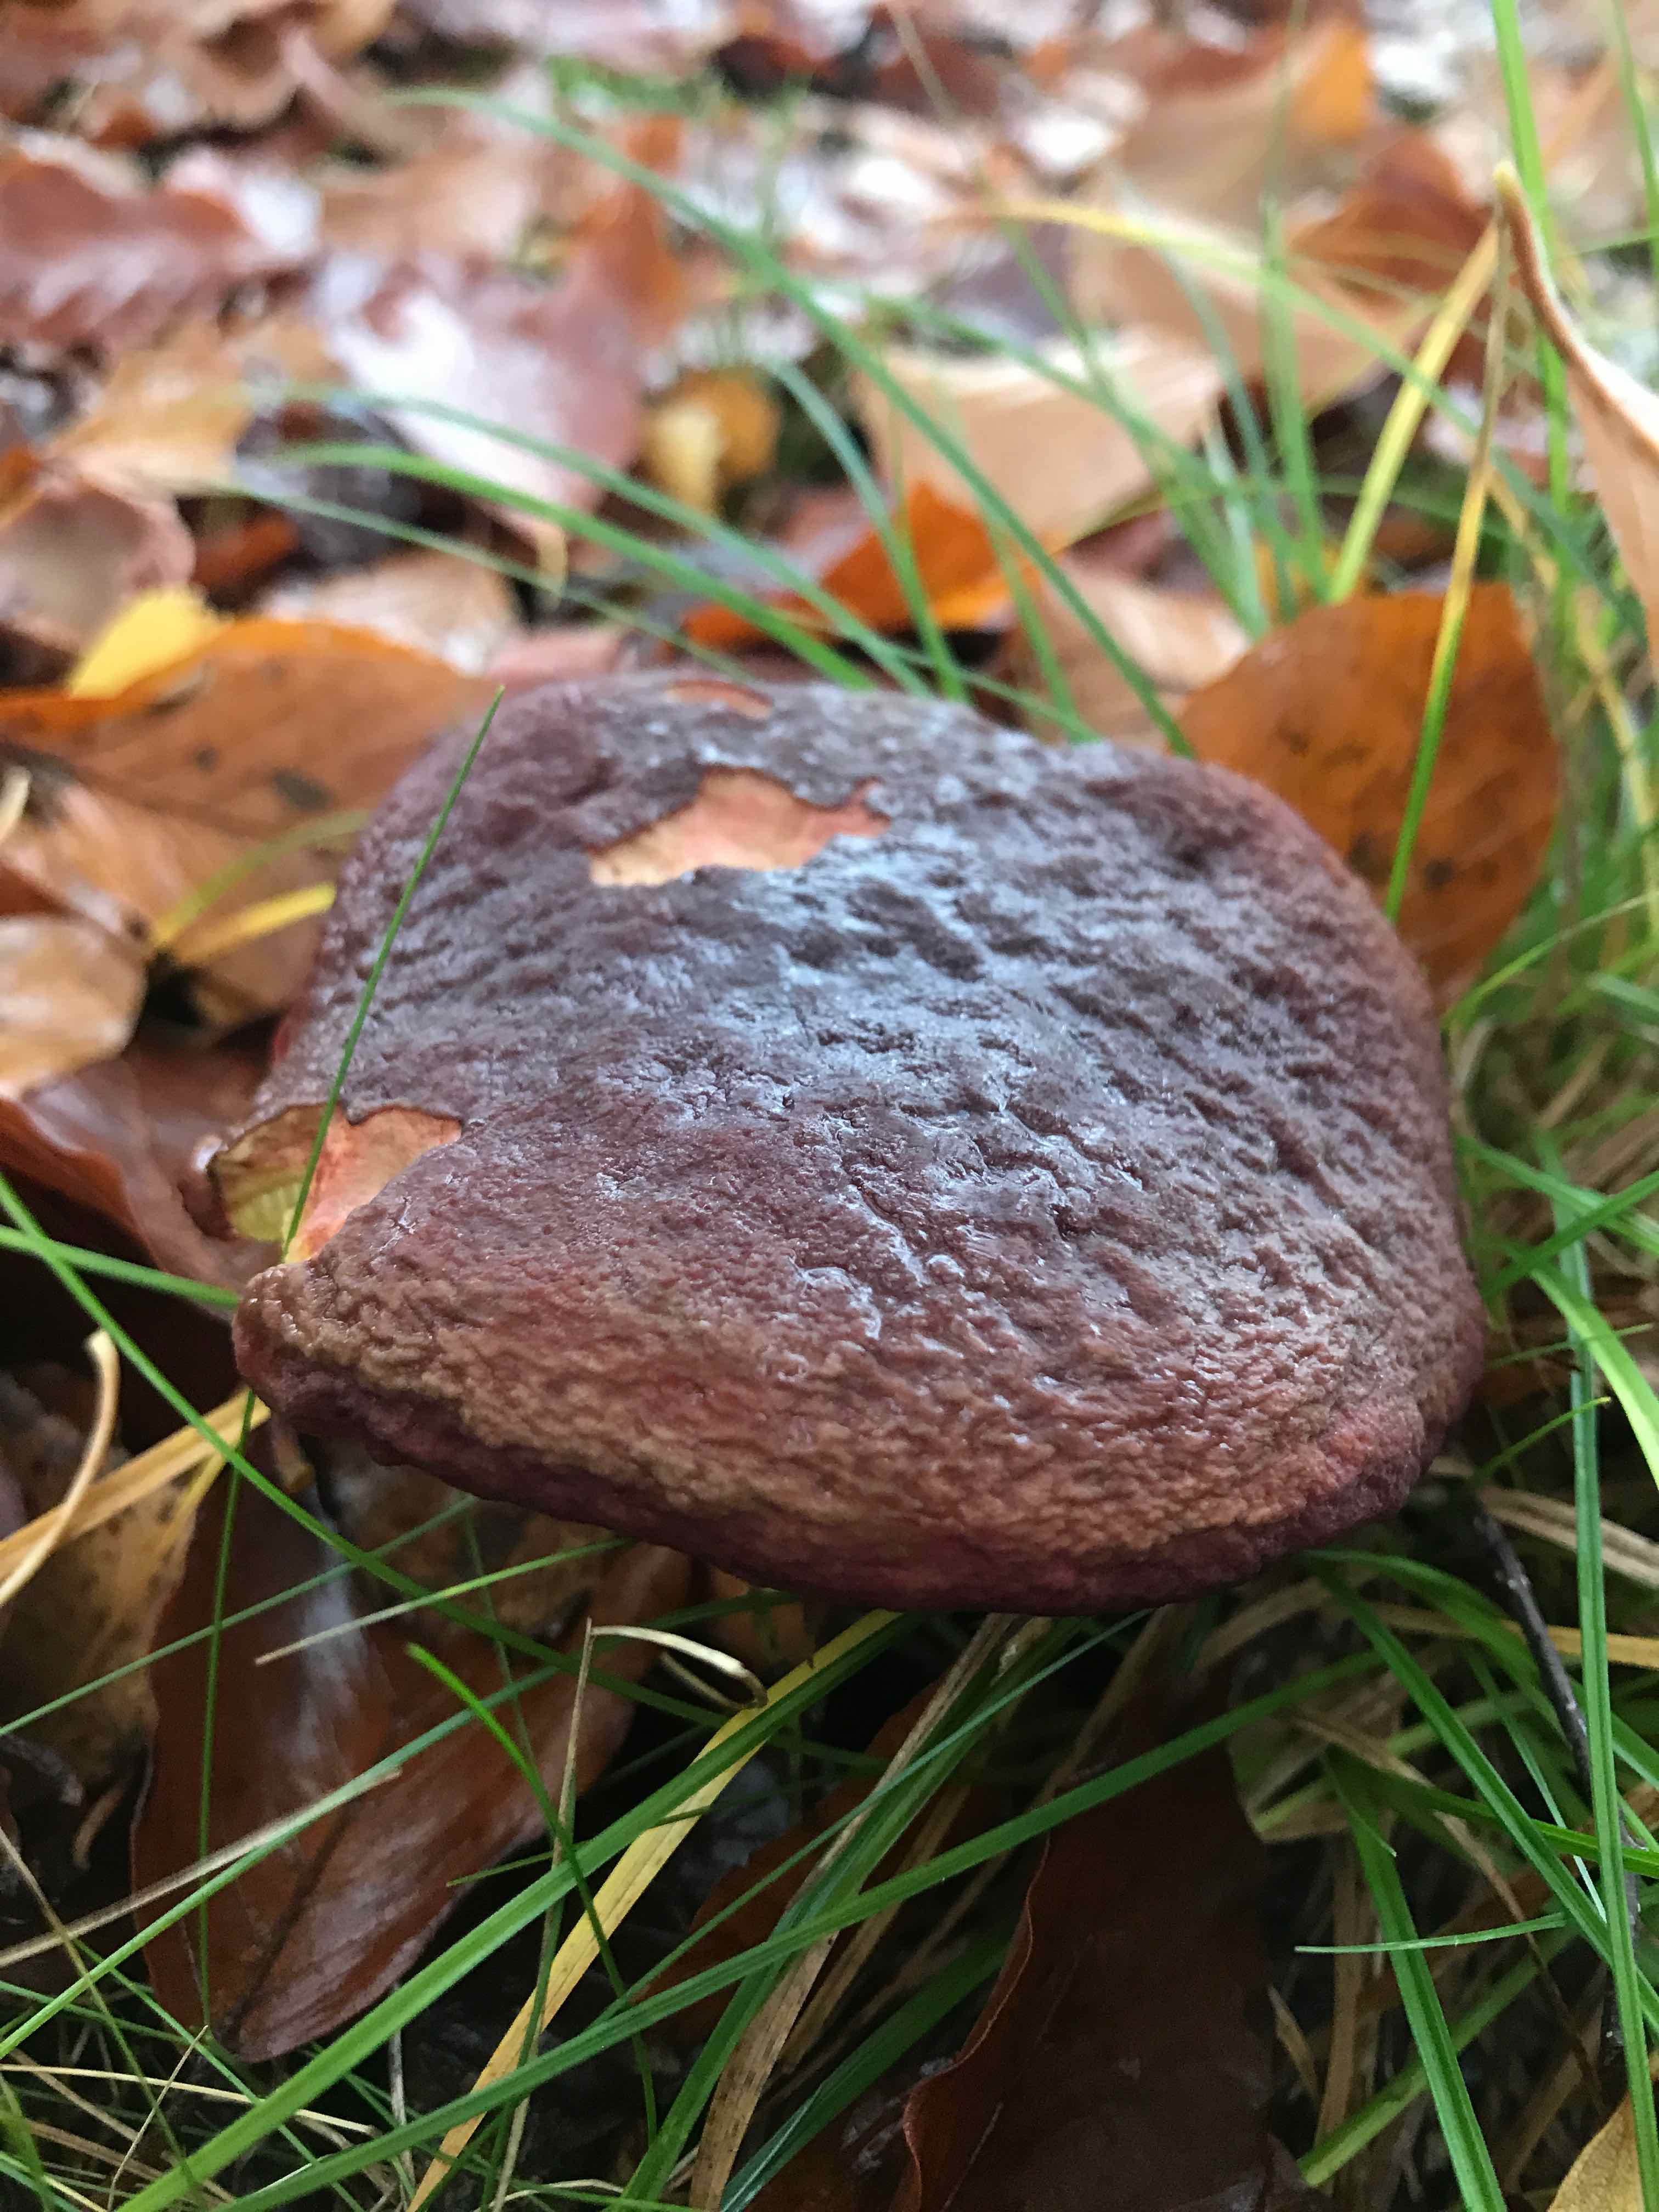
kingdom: Fungi
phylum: Basidiomycota
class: Agaricomycetes
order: Boletales
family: Boletaceae
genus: Xerocomellus
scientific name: Xerocomellus pruinatus
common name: dugget rørhat
